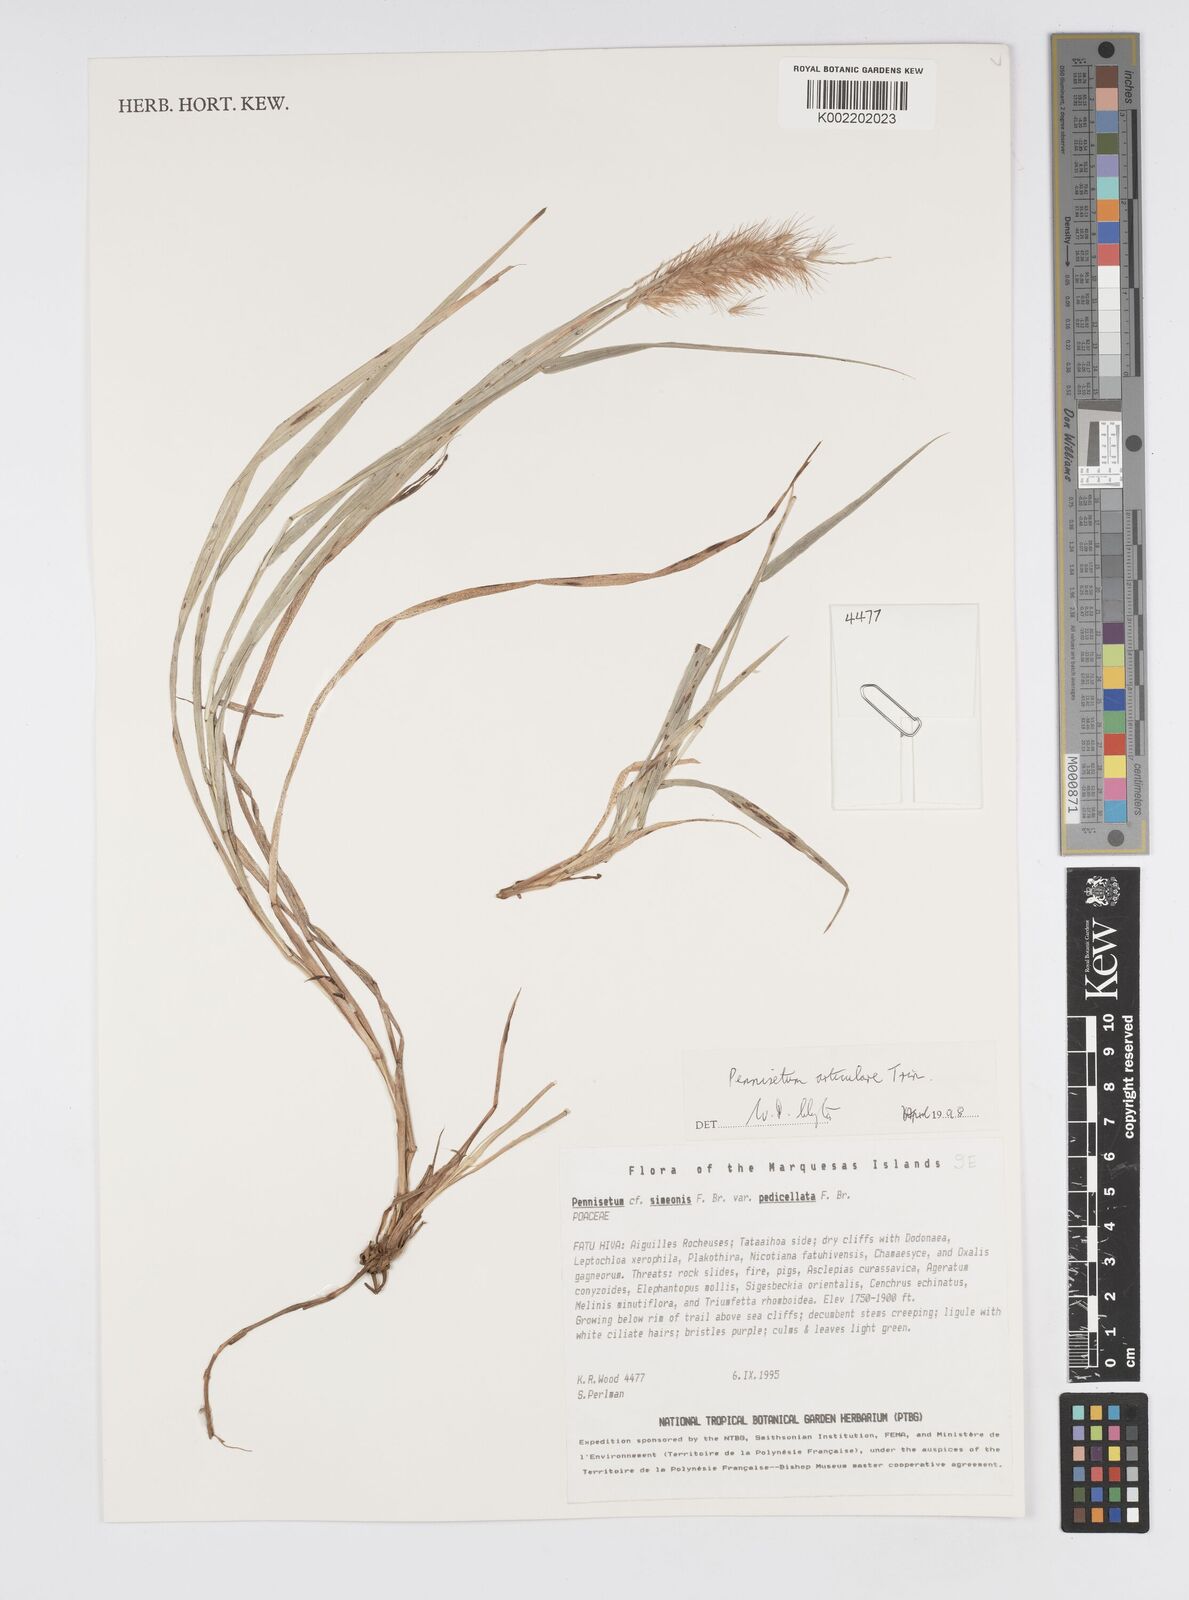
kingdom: Plantae
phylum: Tracheophyta
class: Liliopsida
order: Poales
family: Poaceae
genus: Cenchrus
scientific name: Cenchrus articularis
